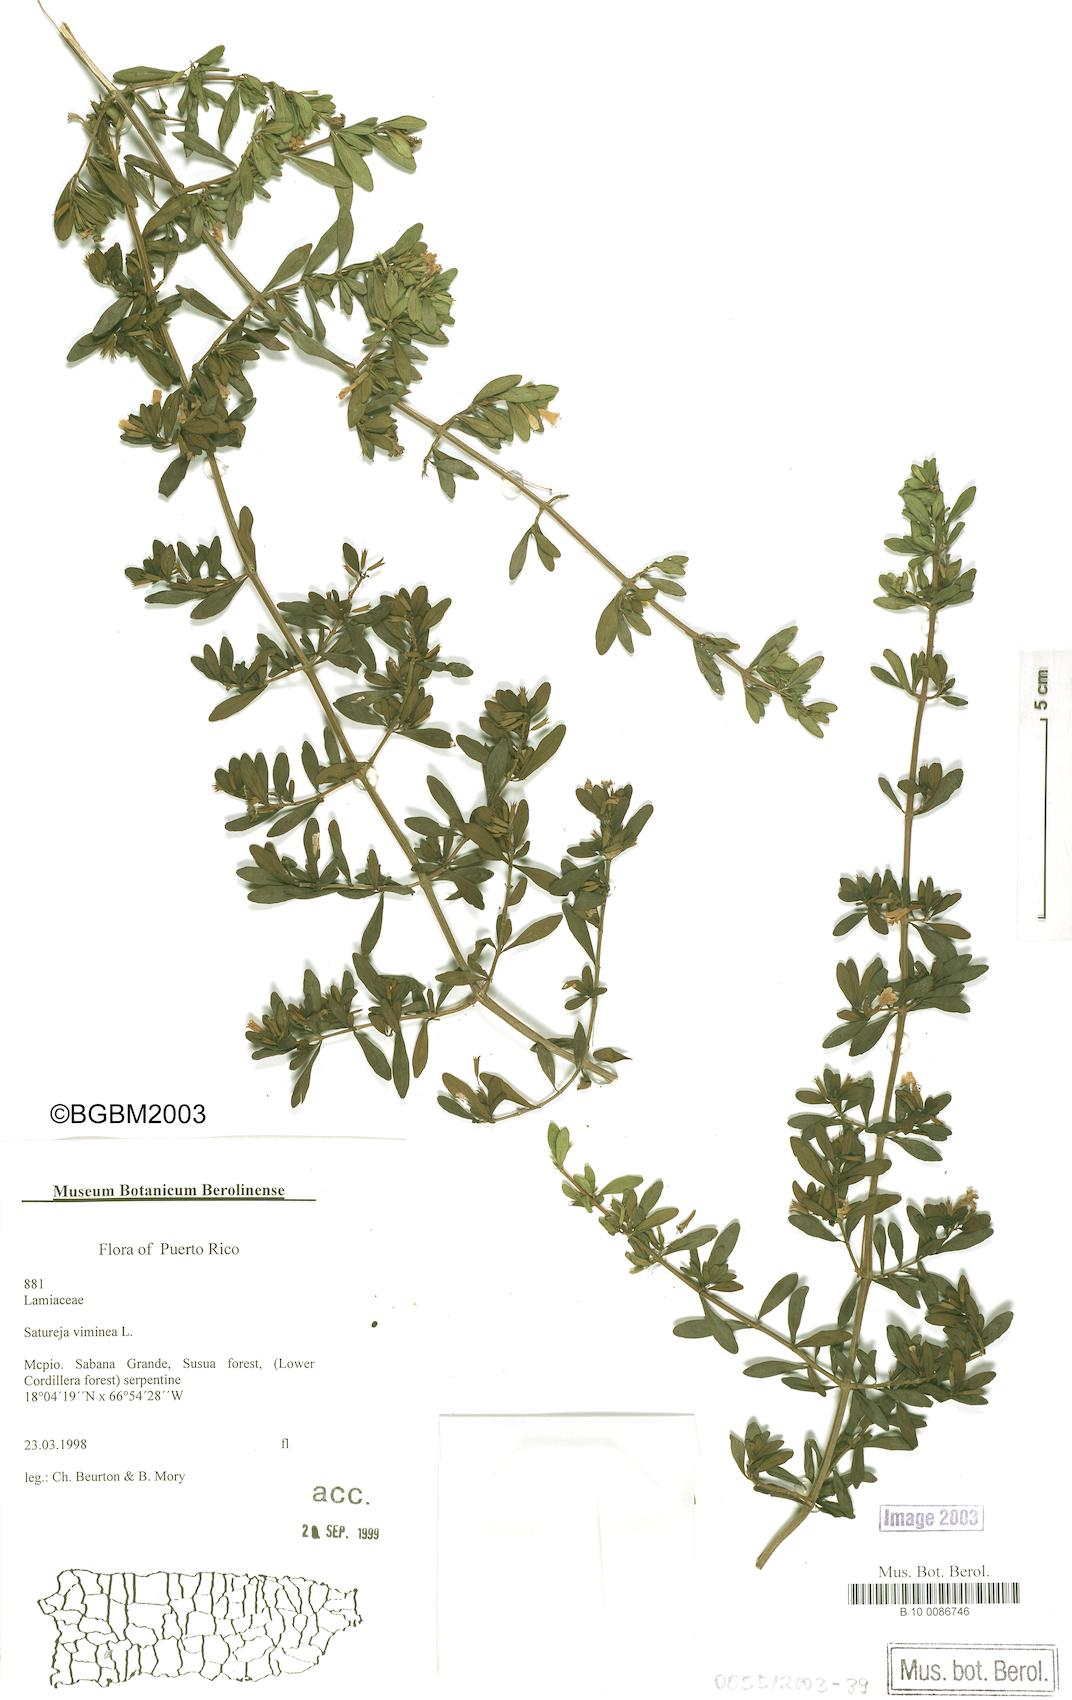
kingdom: Plantae
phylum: Tracheophyta
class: Magnoliopsida
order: Lamiales
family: Lamiaceae
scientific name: Lamiaceae
